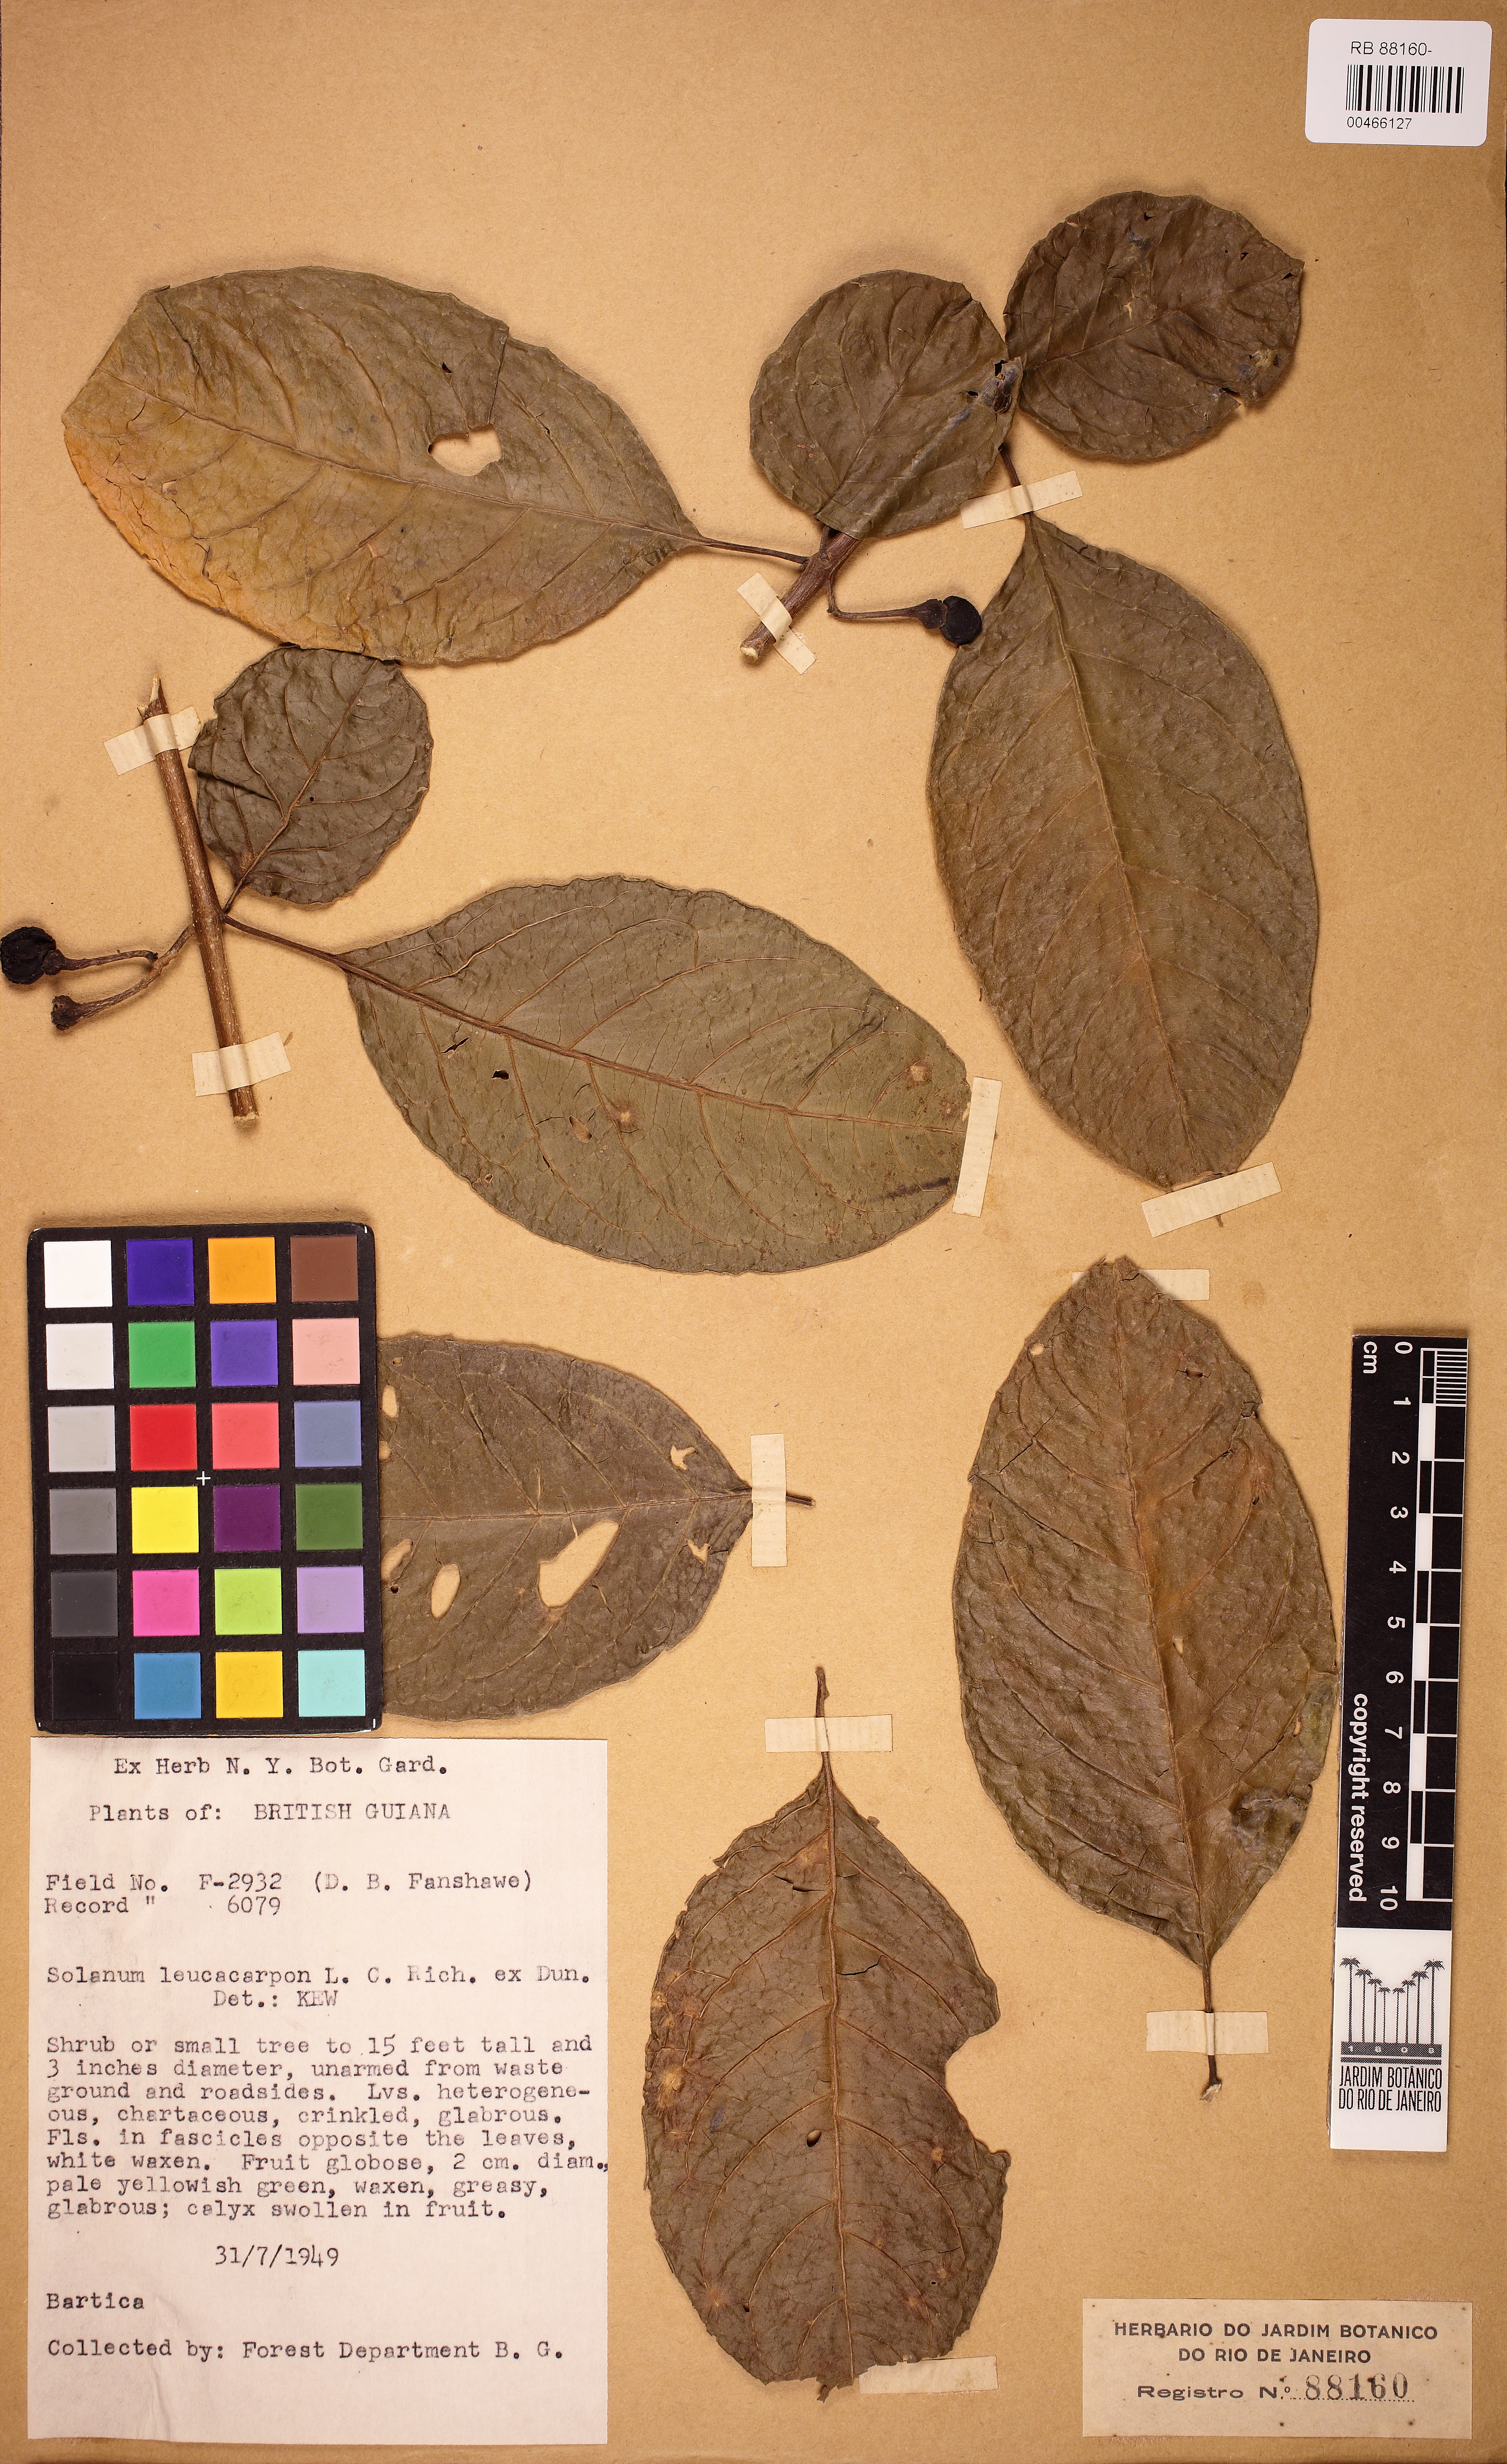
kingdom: Plantae
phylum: Tracheophyta
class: Magnoliopsida
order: Solanales
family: Solanaceae
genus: Solanum
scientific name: Solanum leucocarpon
